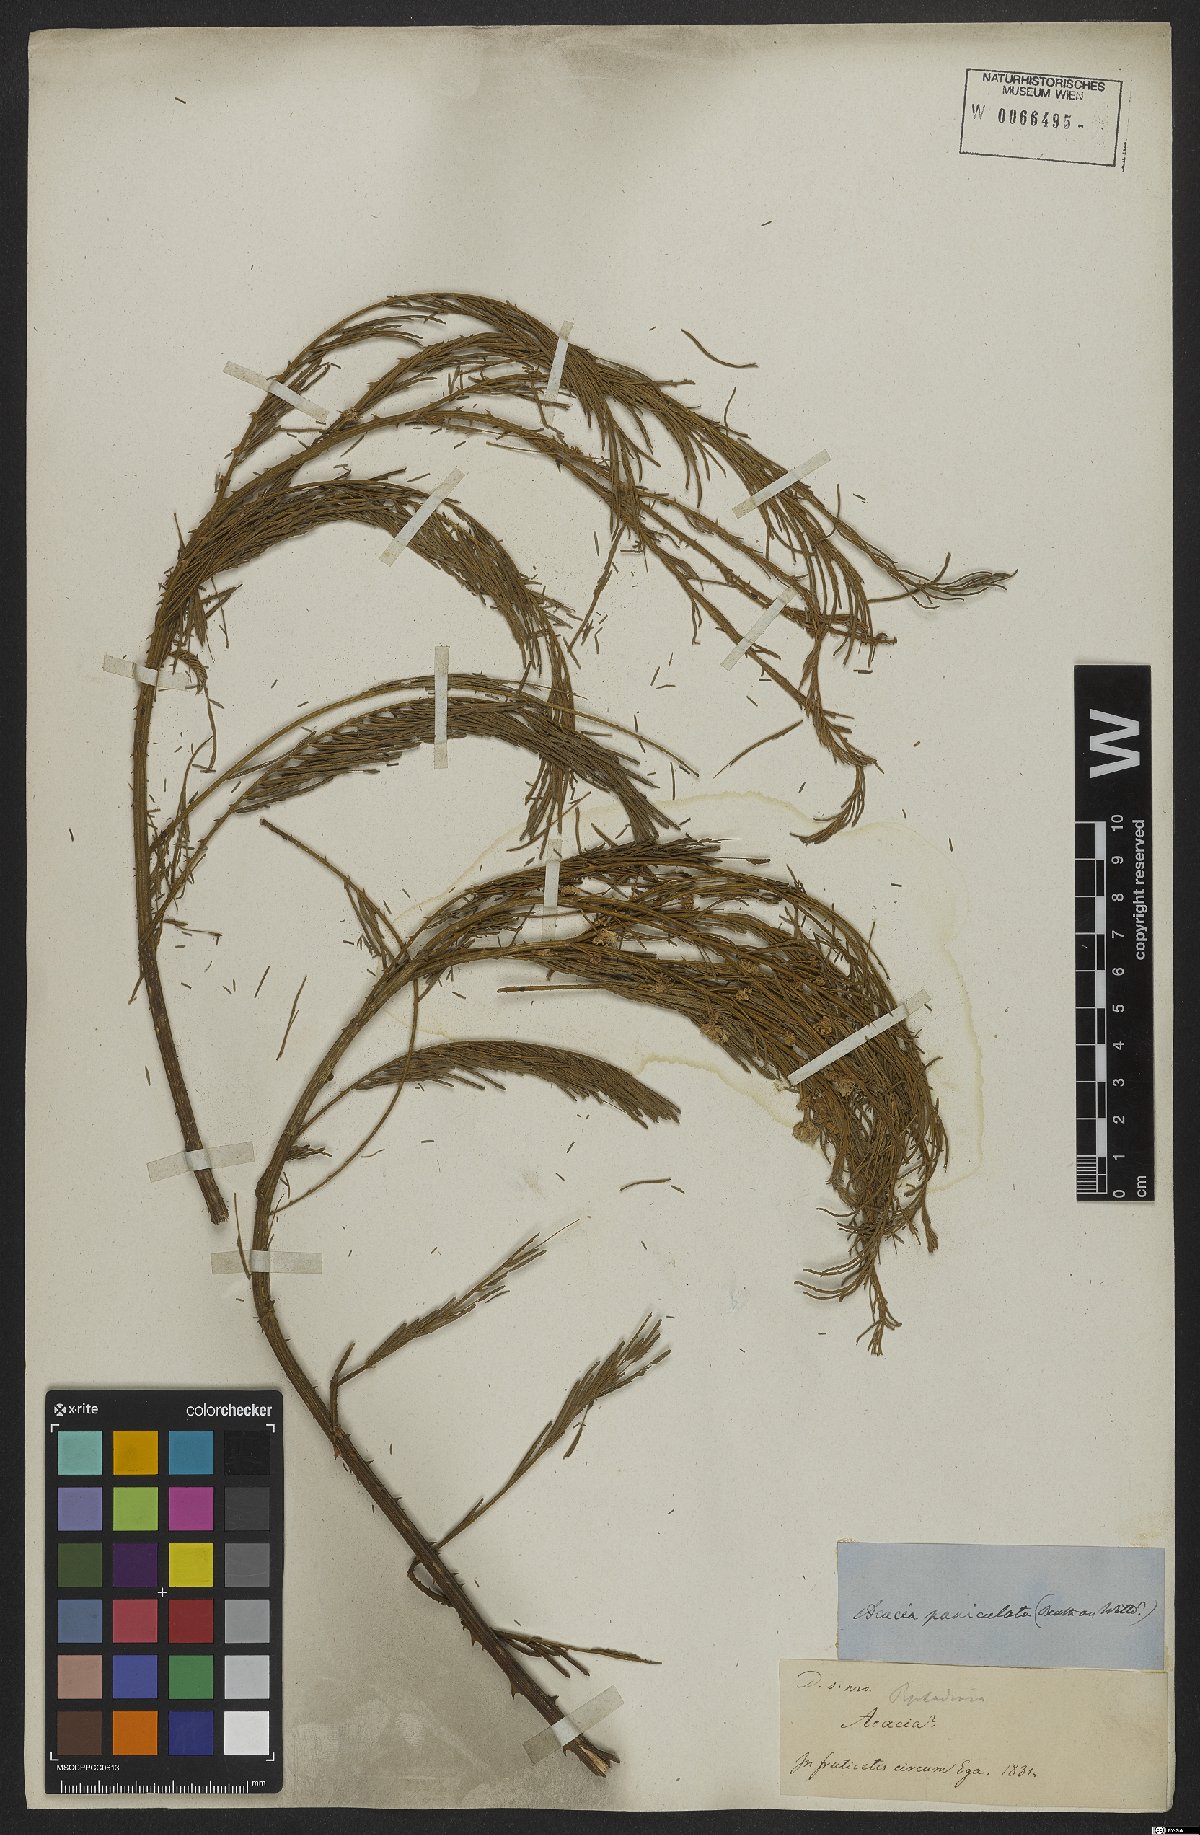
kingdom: Plantae
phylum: Tracheophyta
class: Magnoliopsida
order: Fabales
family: Fabaceae
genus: Senegalia
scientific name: Senegalia paniculata
